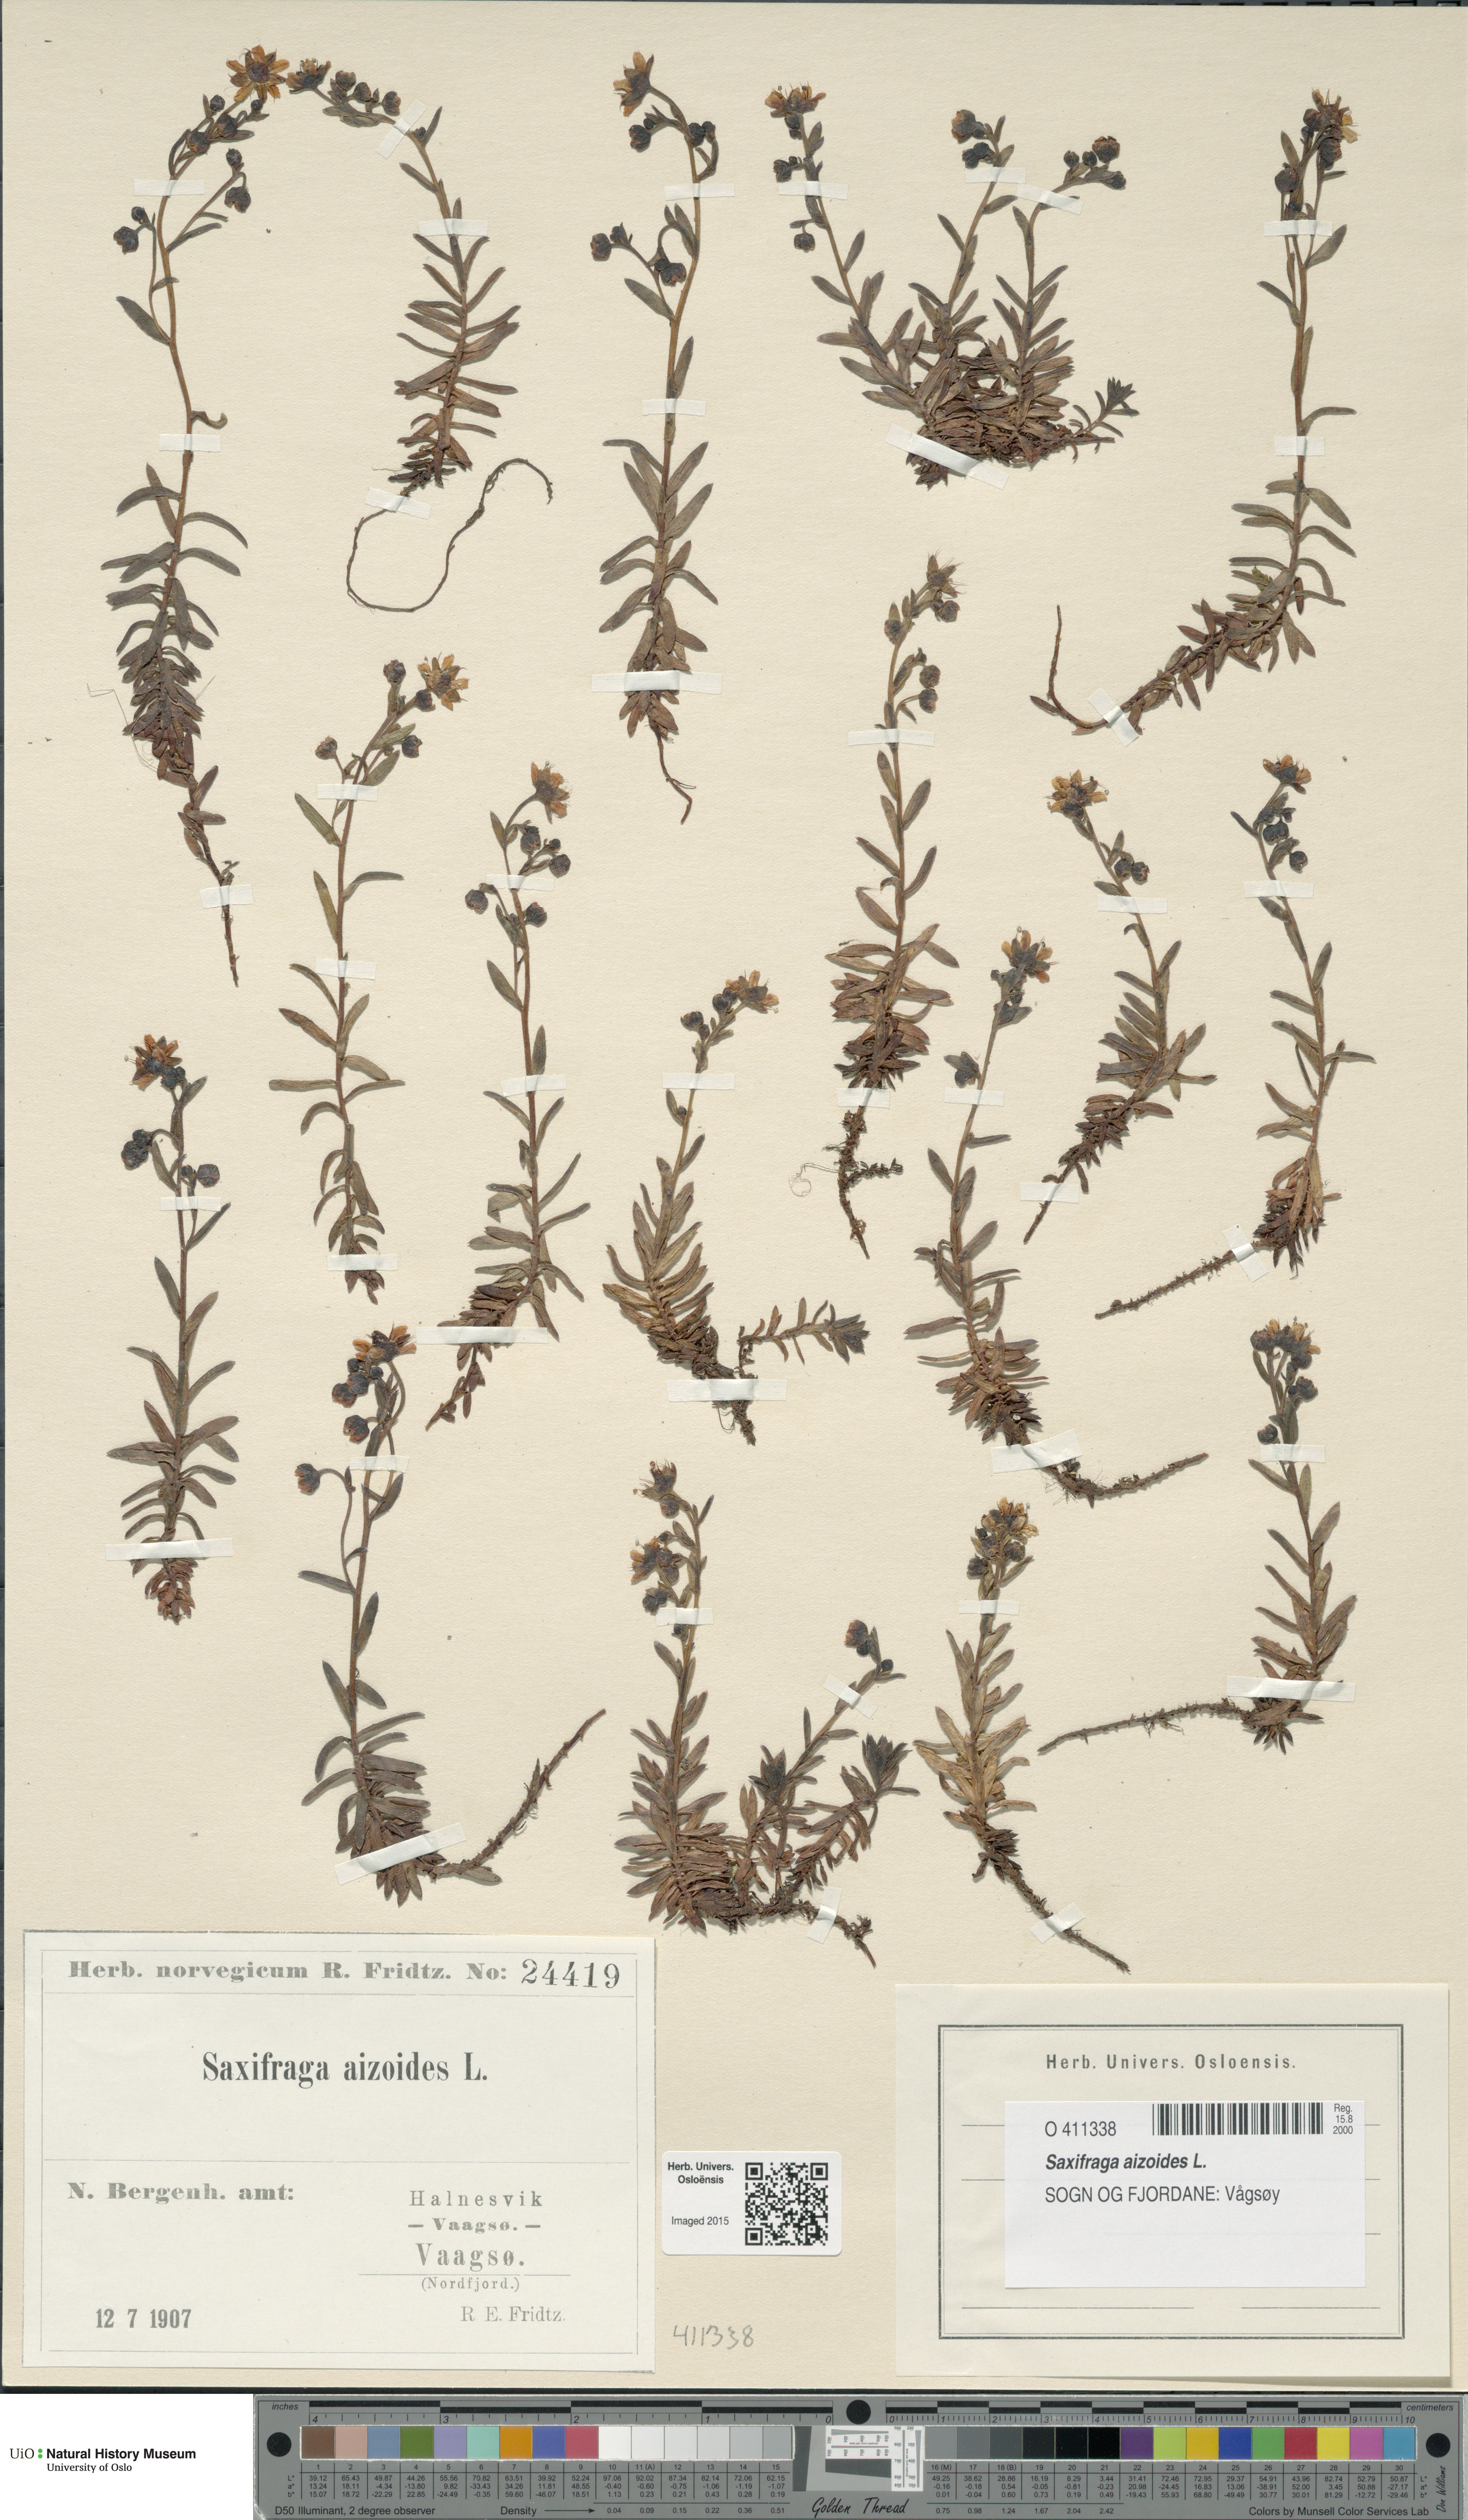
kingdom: Plantae
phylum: Tracheophyta
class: Magnoliopsida
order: Saxifragales
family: Saxifragaceae
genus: Saxifraga
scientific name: Saxifraga aizoides
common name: Yellow mountain saxifrage
